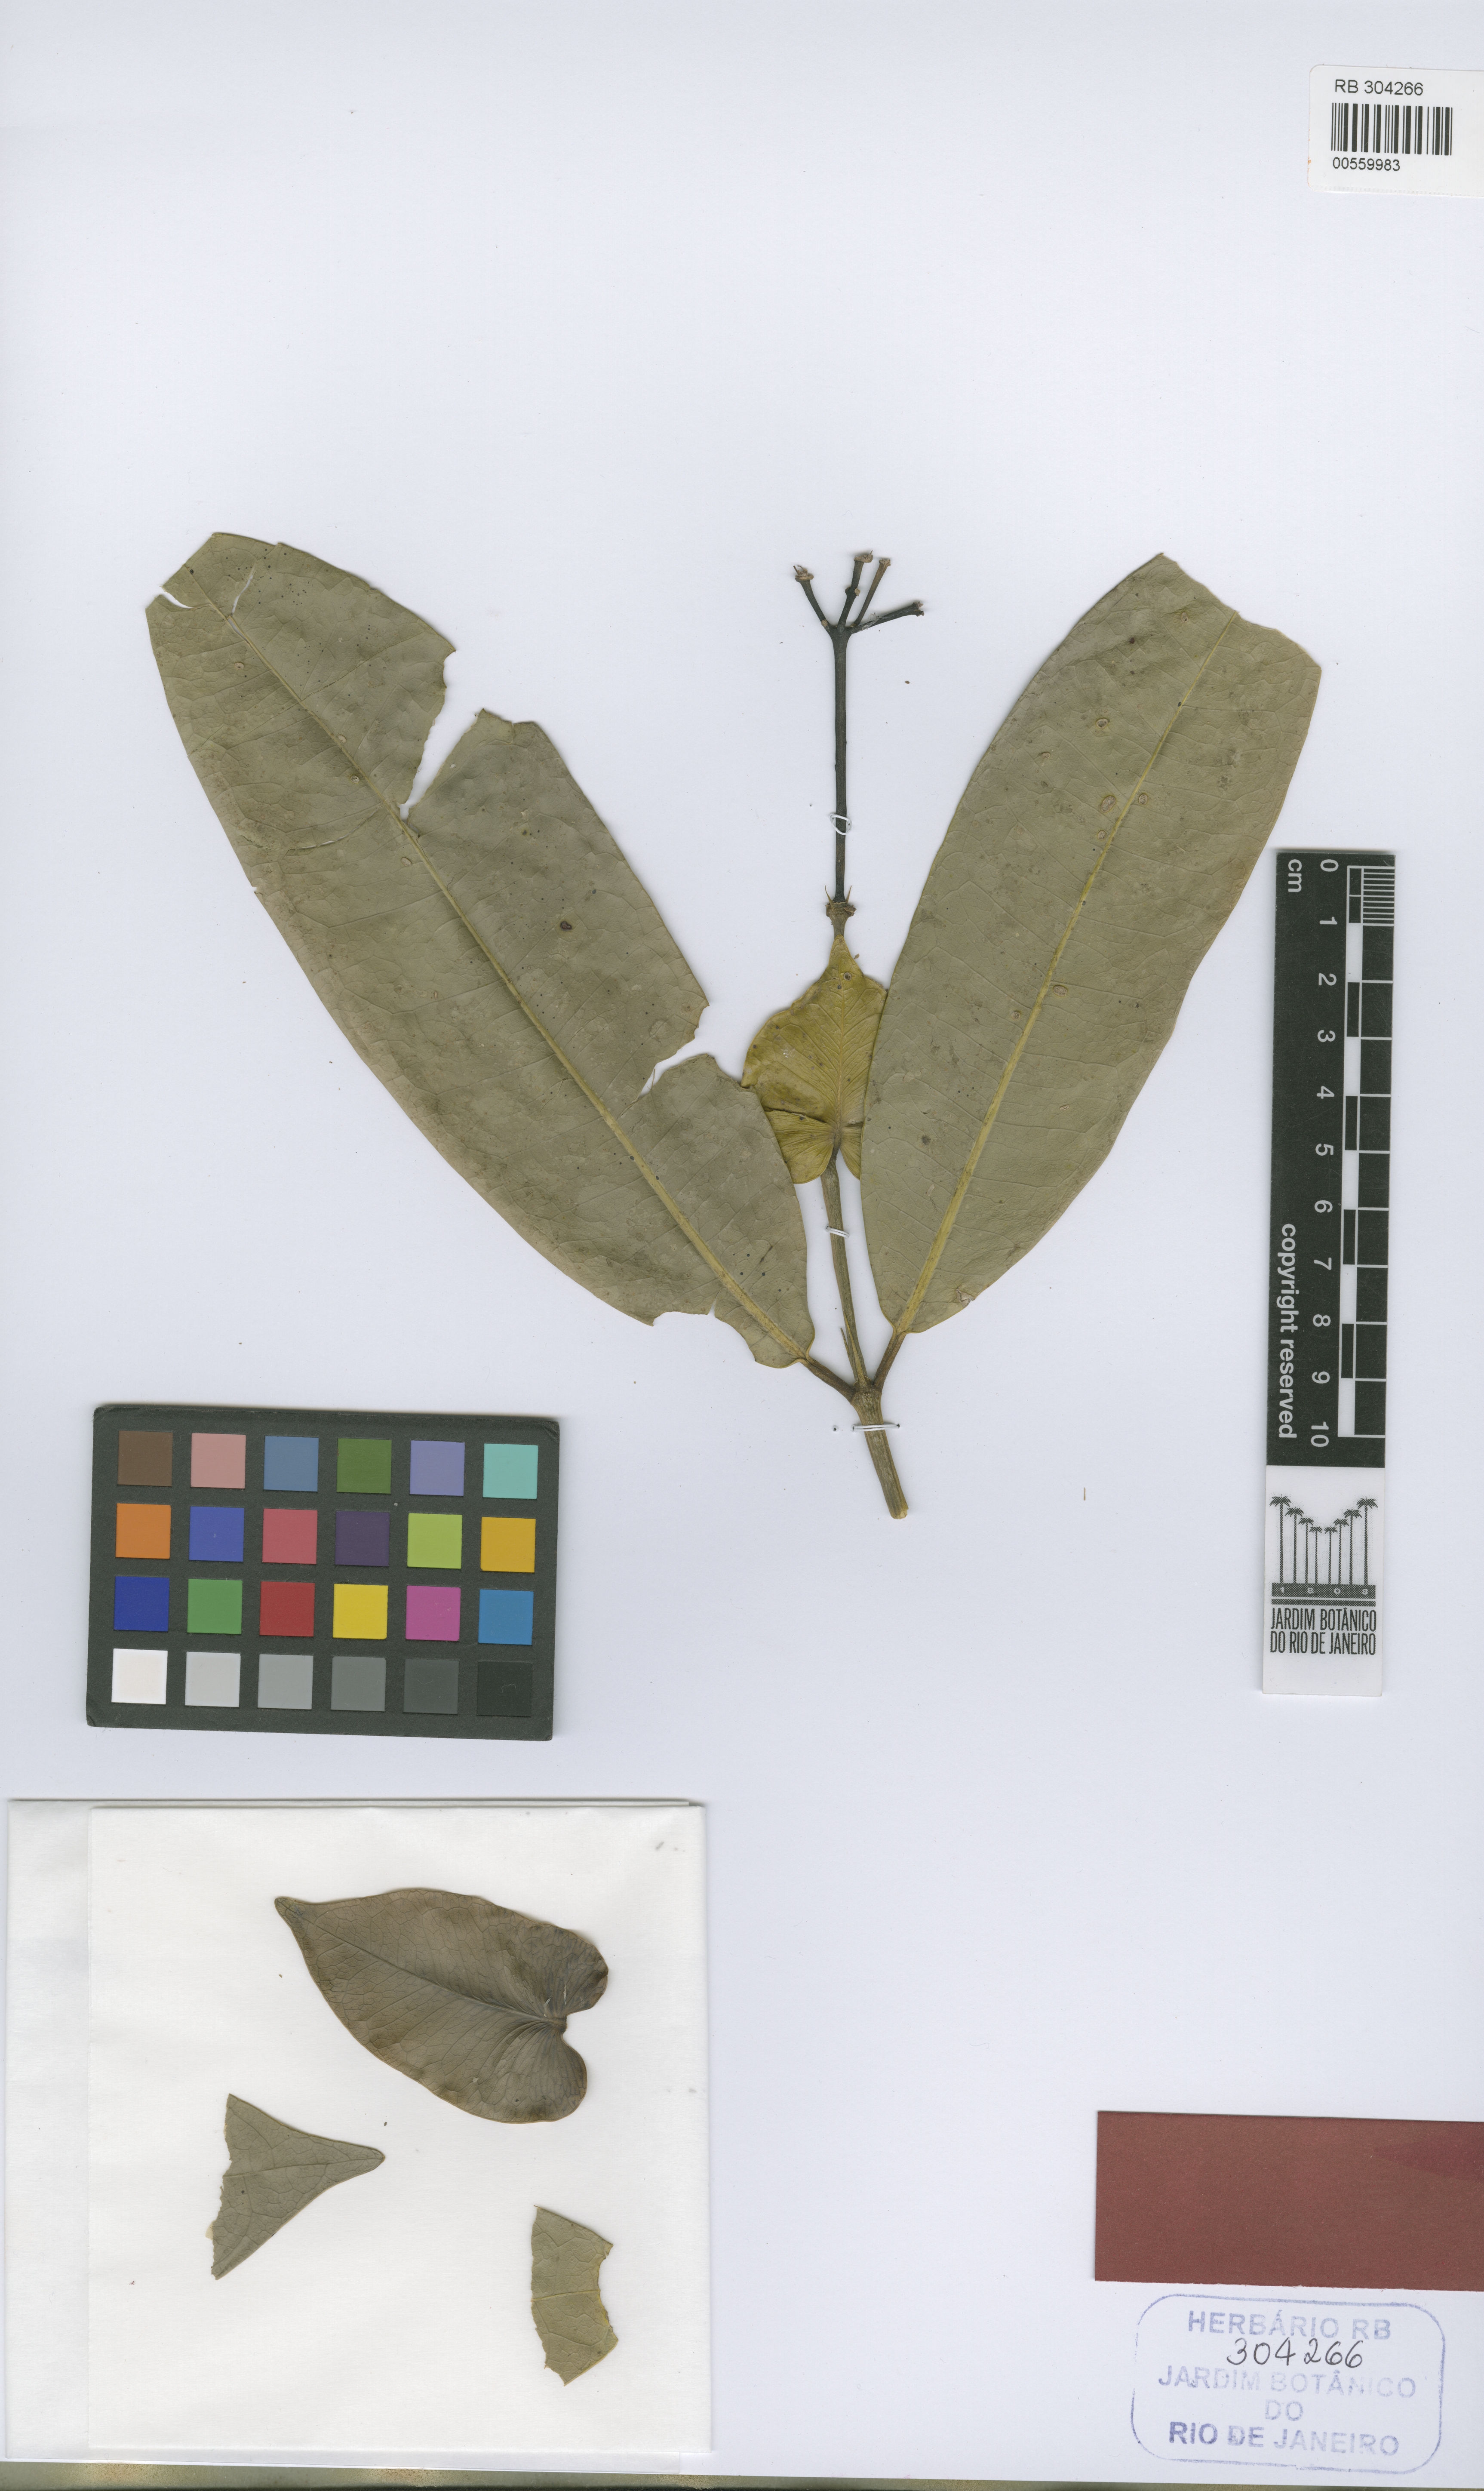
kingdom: Plantae
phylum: Tracheophyta
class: Magnoliopsida
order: Gentianales
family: Rubiaceae
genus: Faramea
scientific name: Faramea paratiensis
